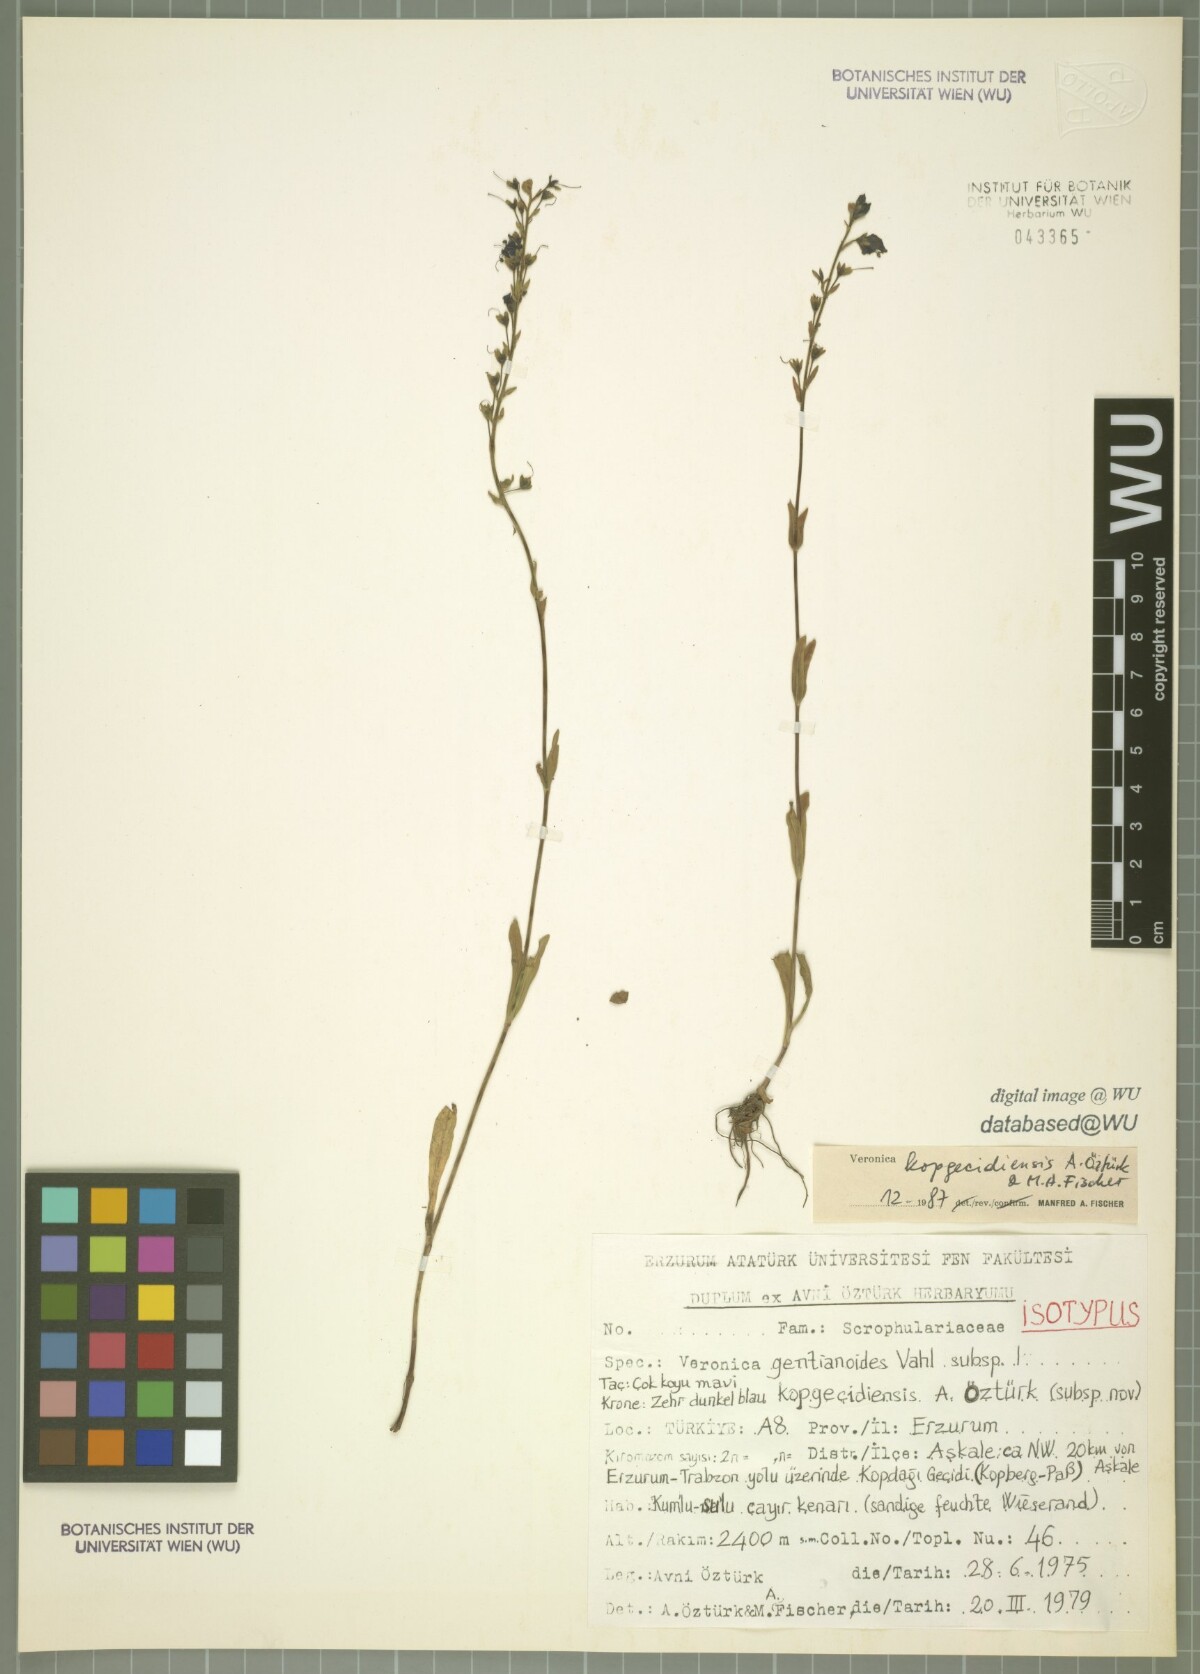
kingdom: Plantae
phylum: Tracheophyta
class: Magnoliopsida
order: Lamiales
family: Plantaginaceae
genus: Veronica
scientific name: Veronica kopgecidiensis
